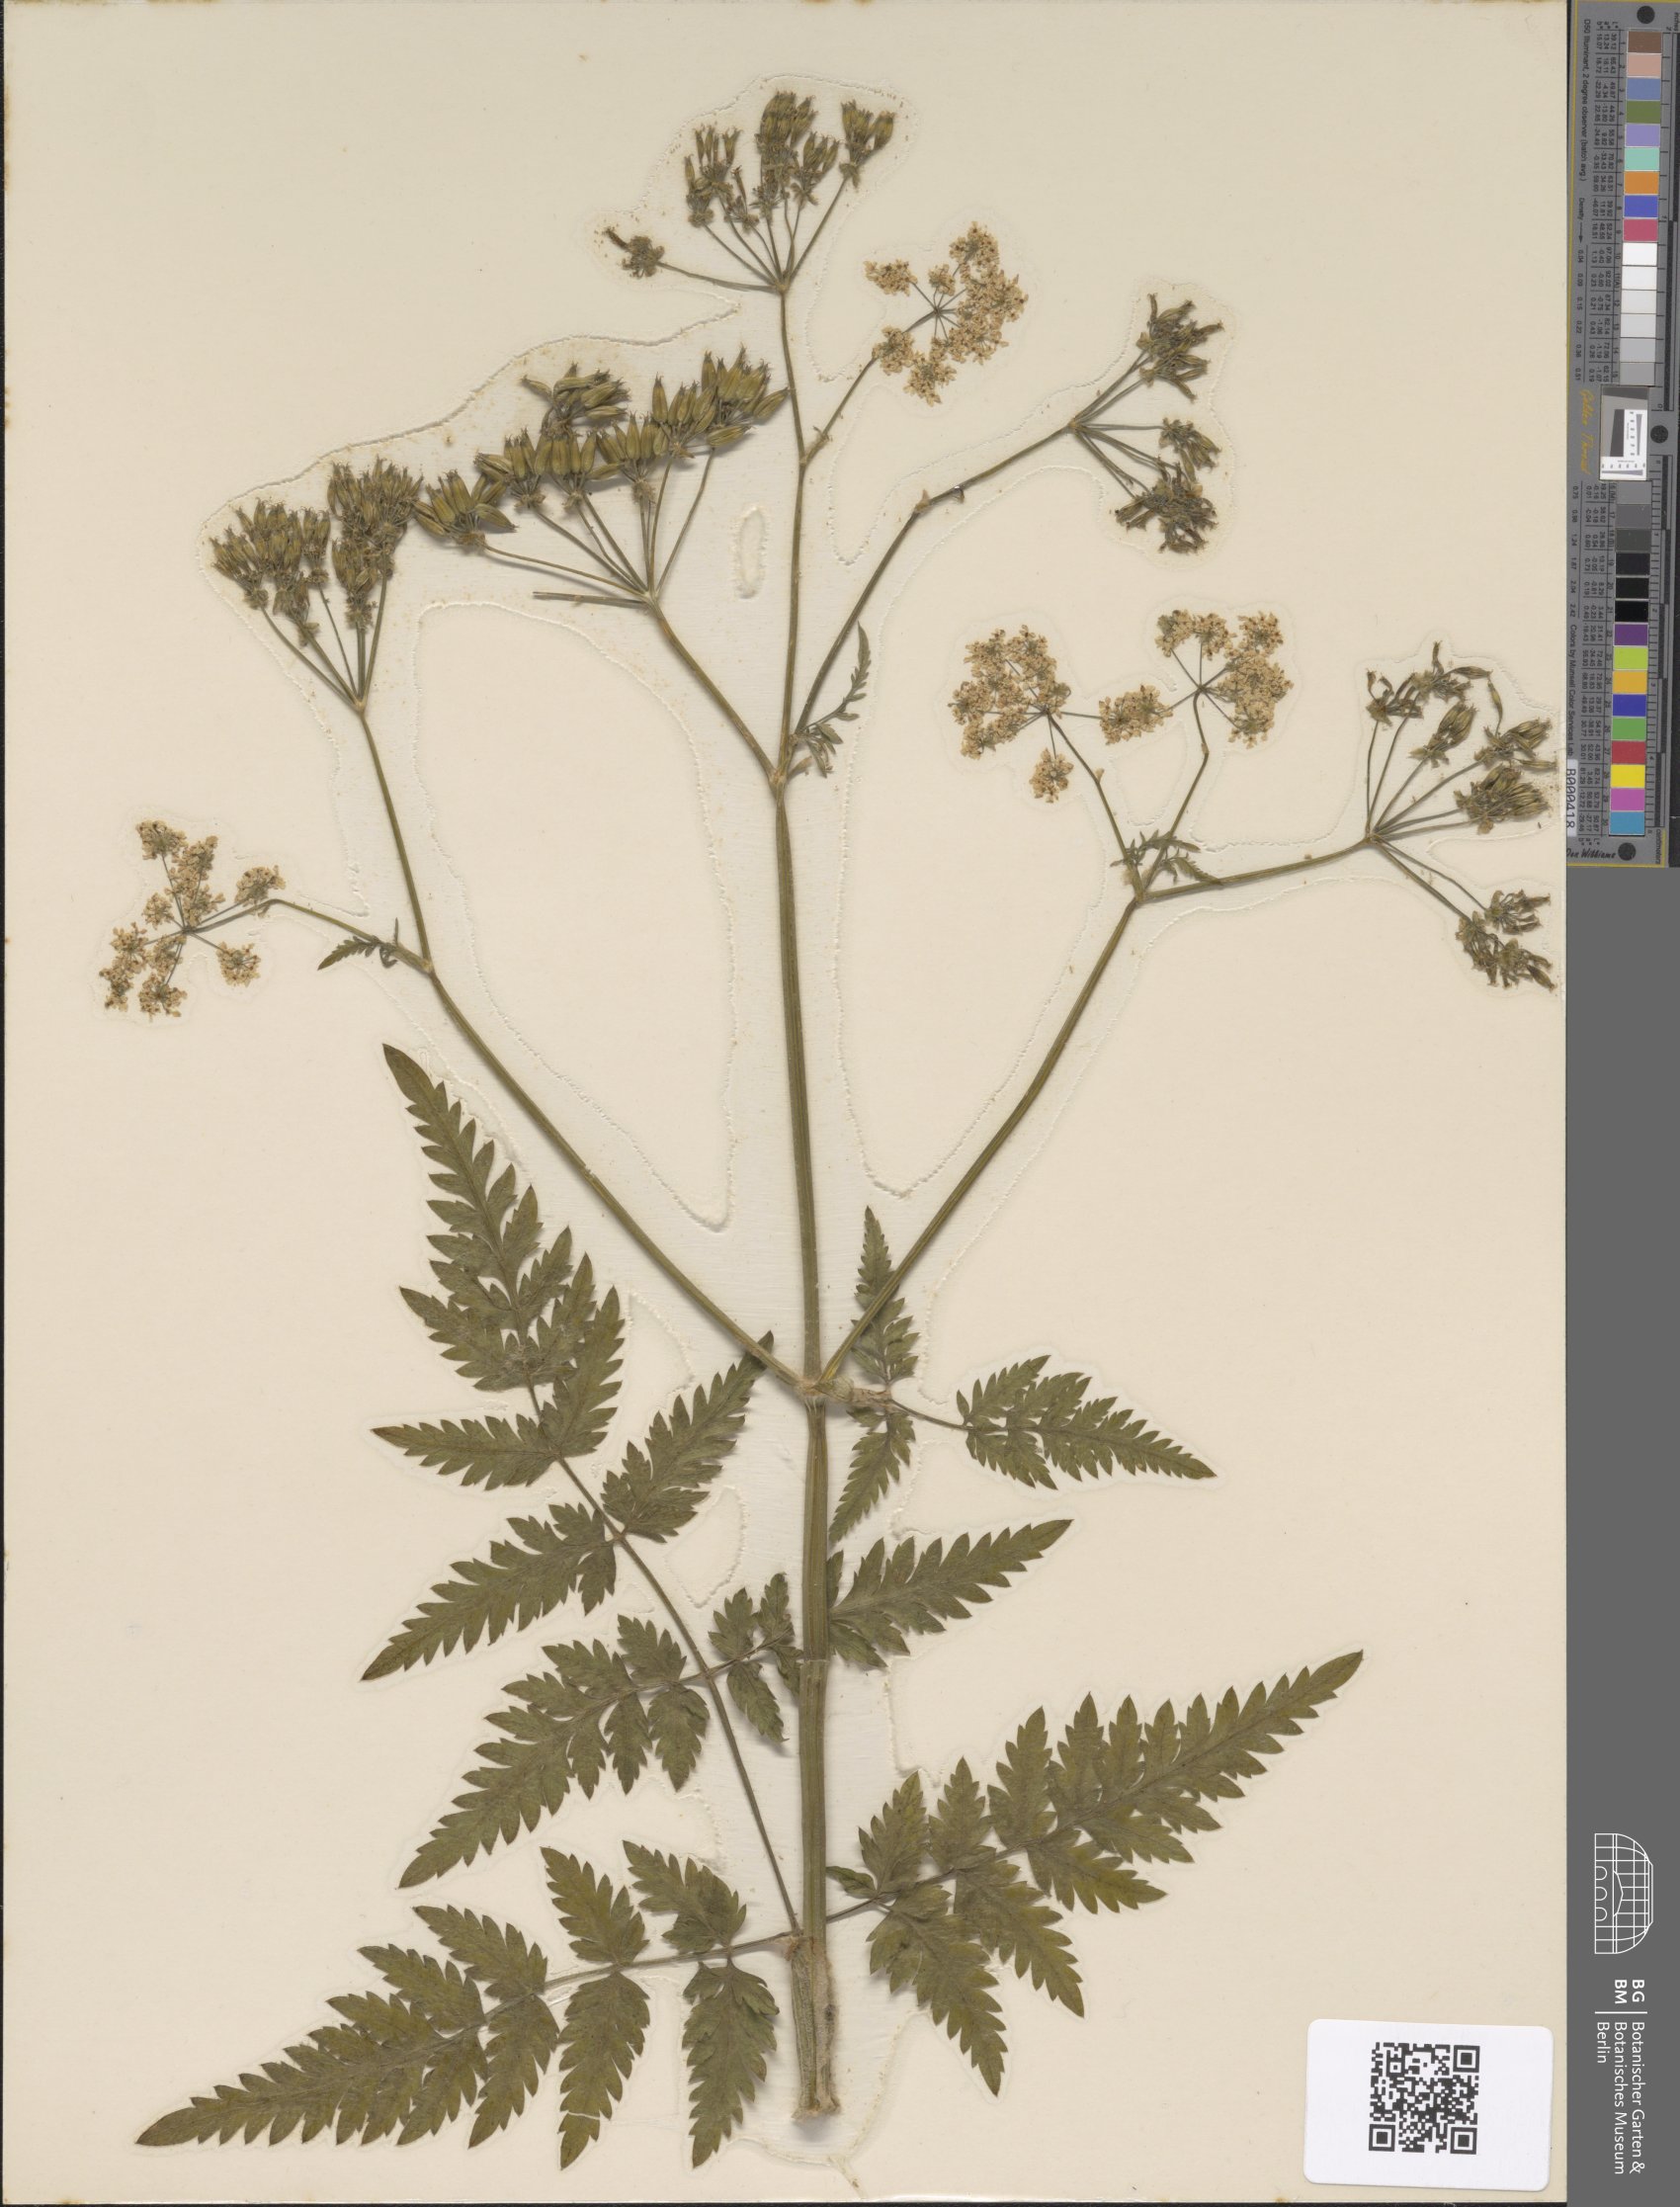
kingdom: Plantae
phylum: Tracheophyta
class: Magnoliopsida
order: Apiales
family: Apiaceae
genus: Anthriscus
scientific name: Anthriscus sylvestris
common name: Cow parsley
